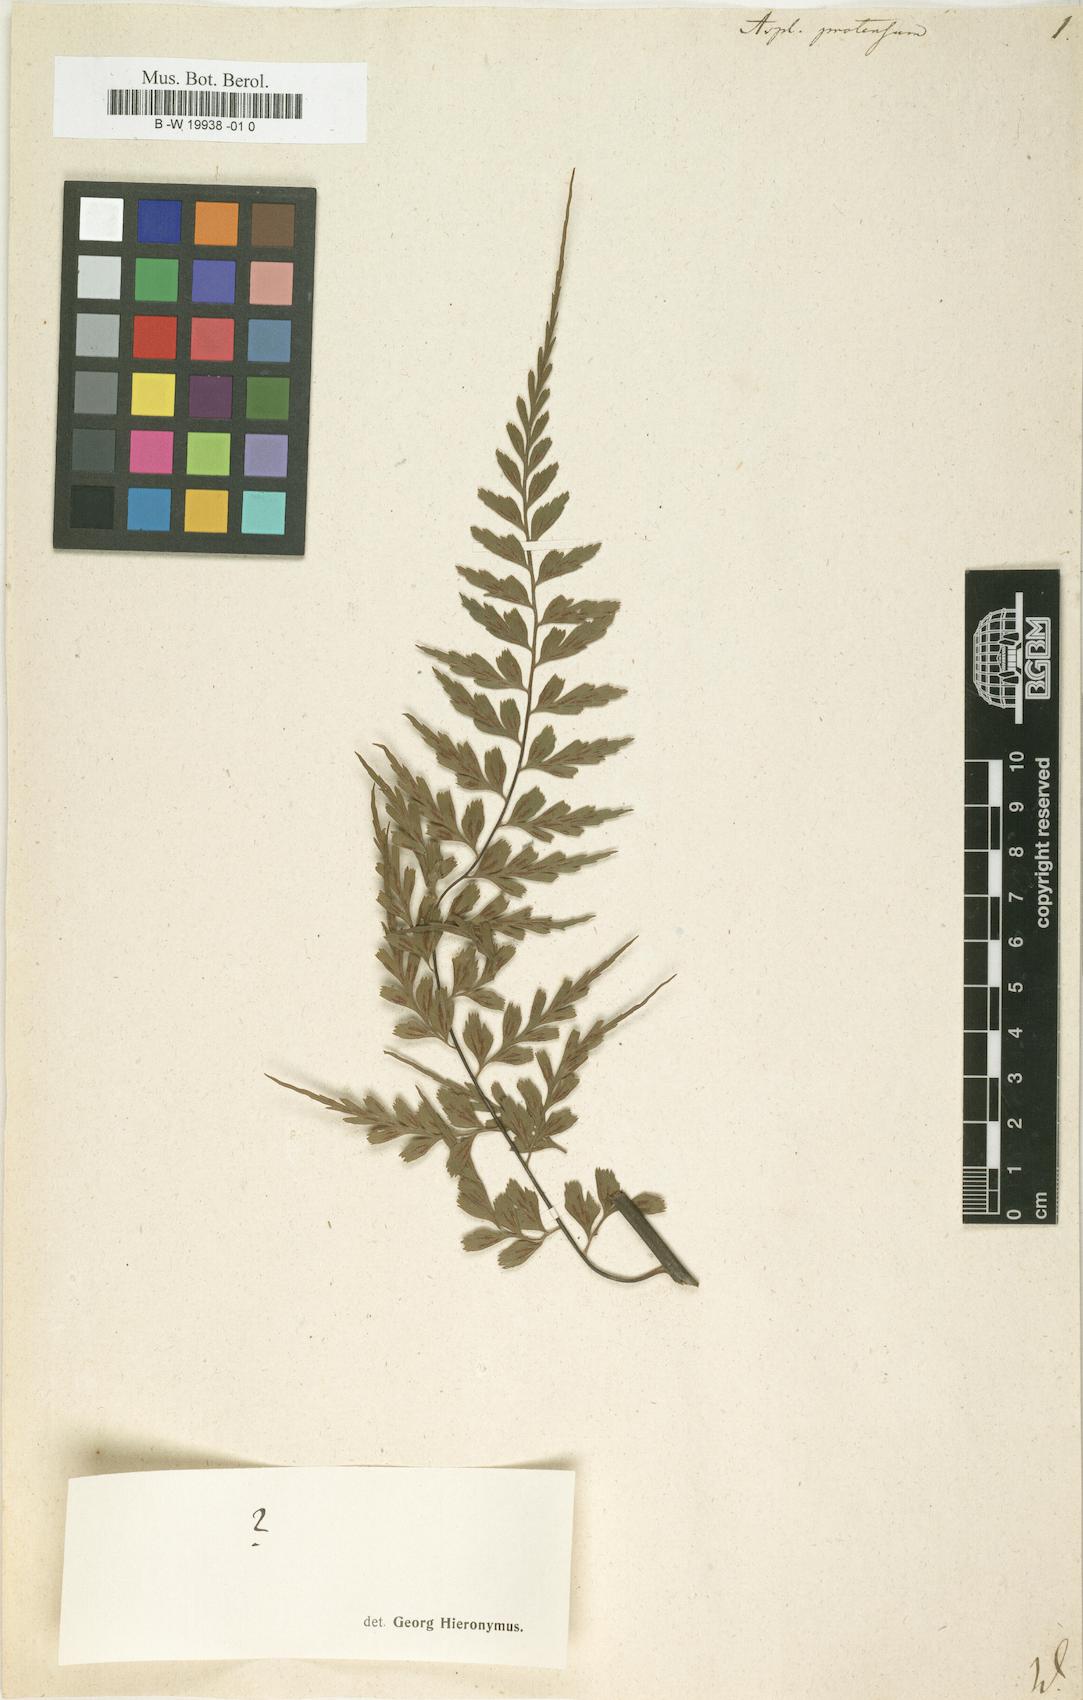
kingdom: Plantae
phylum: Tracheophyta
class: Polypodiopsida
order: Polypodiales
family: Aspleniaceae
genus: Asplenium
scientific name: Asplenium protensum
